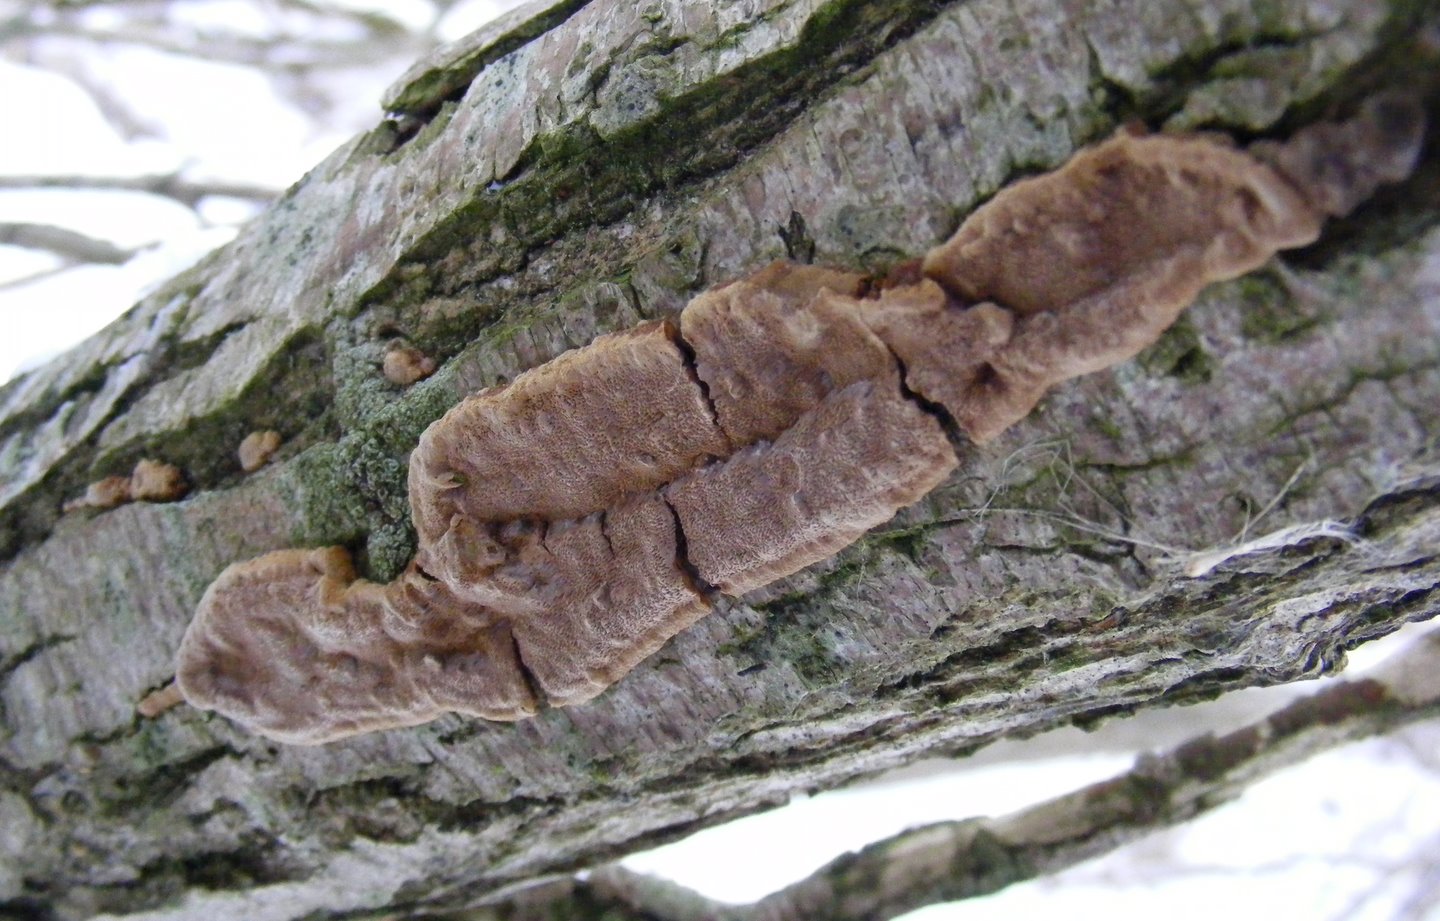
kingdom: Fungi
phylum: Basidiomycota
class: Agaricomycetes
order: Hymenochaetales
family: Hymenochaetaceae
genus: Fuscoporia
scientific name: Fuscoporia ferrea
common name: skorpe-ildporesvamp
